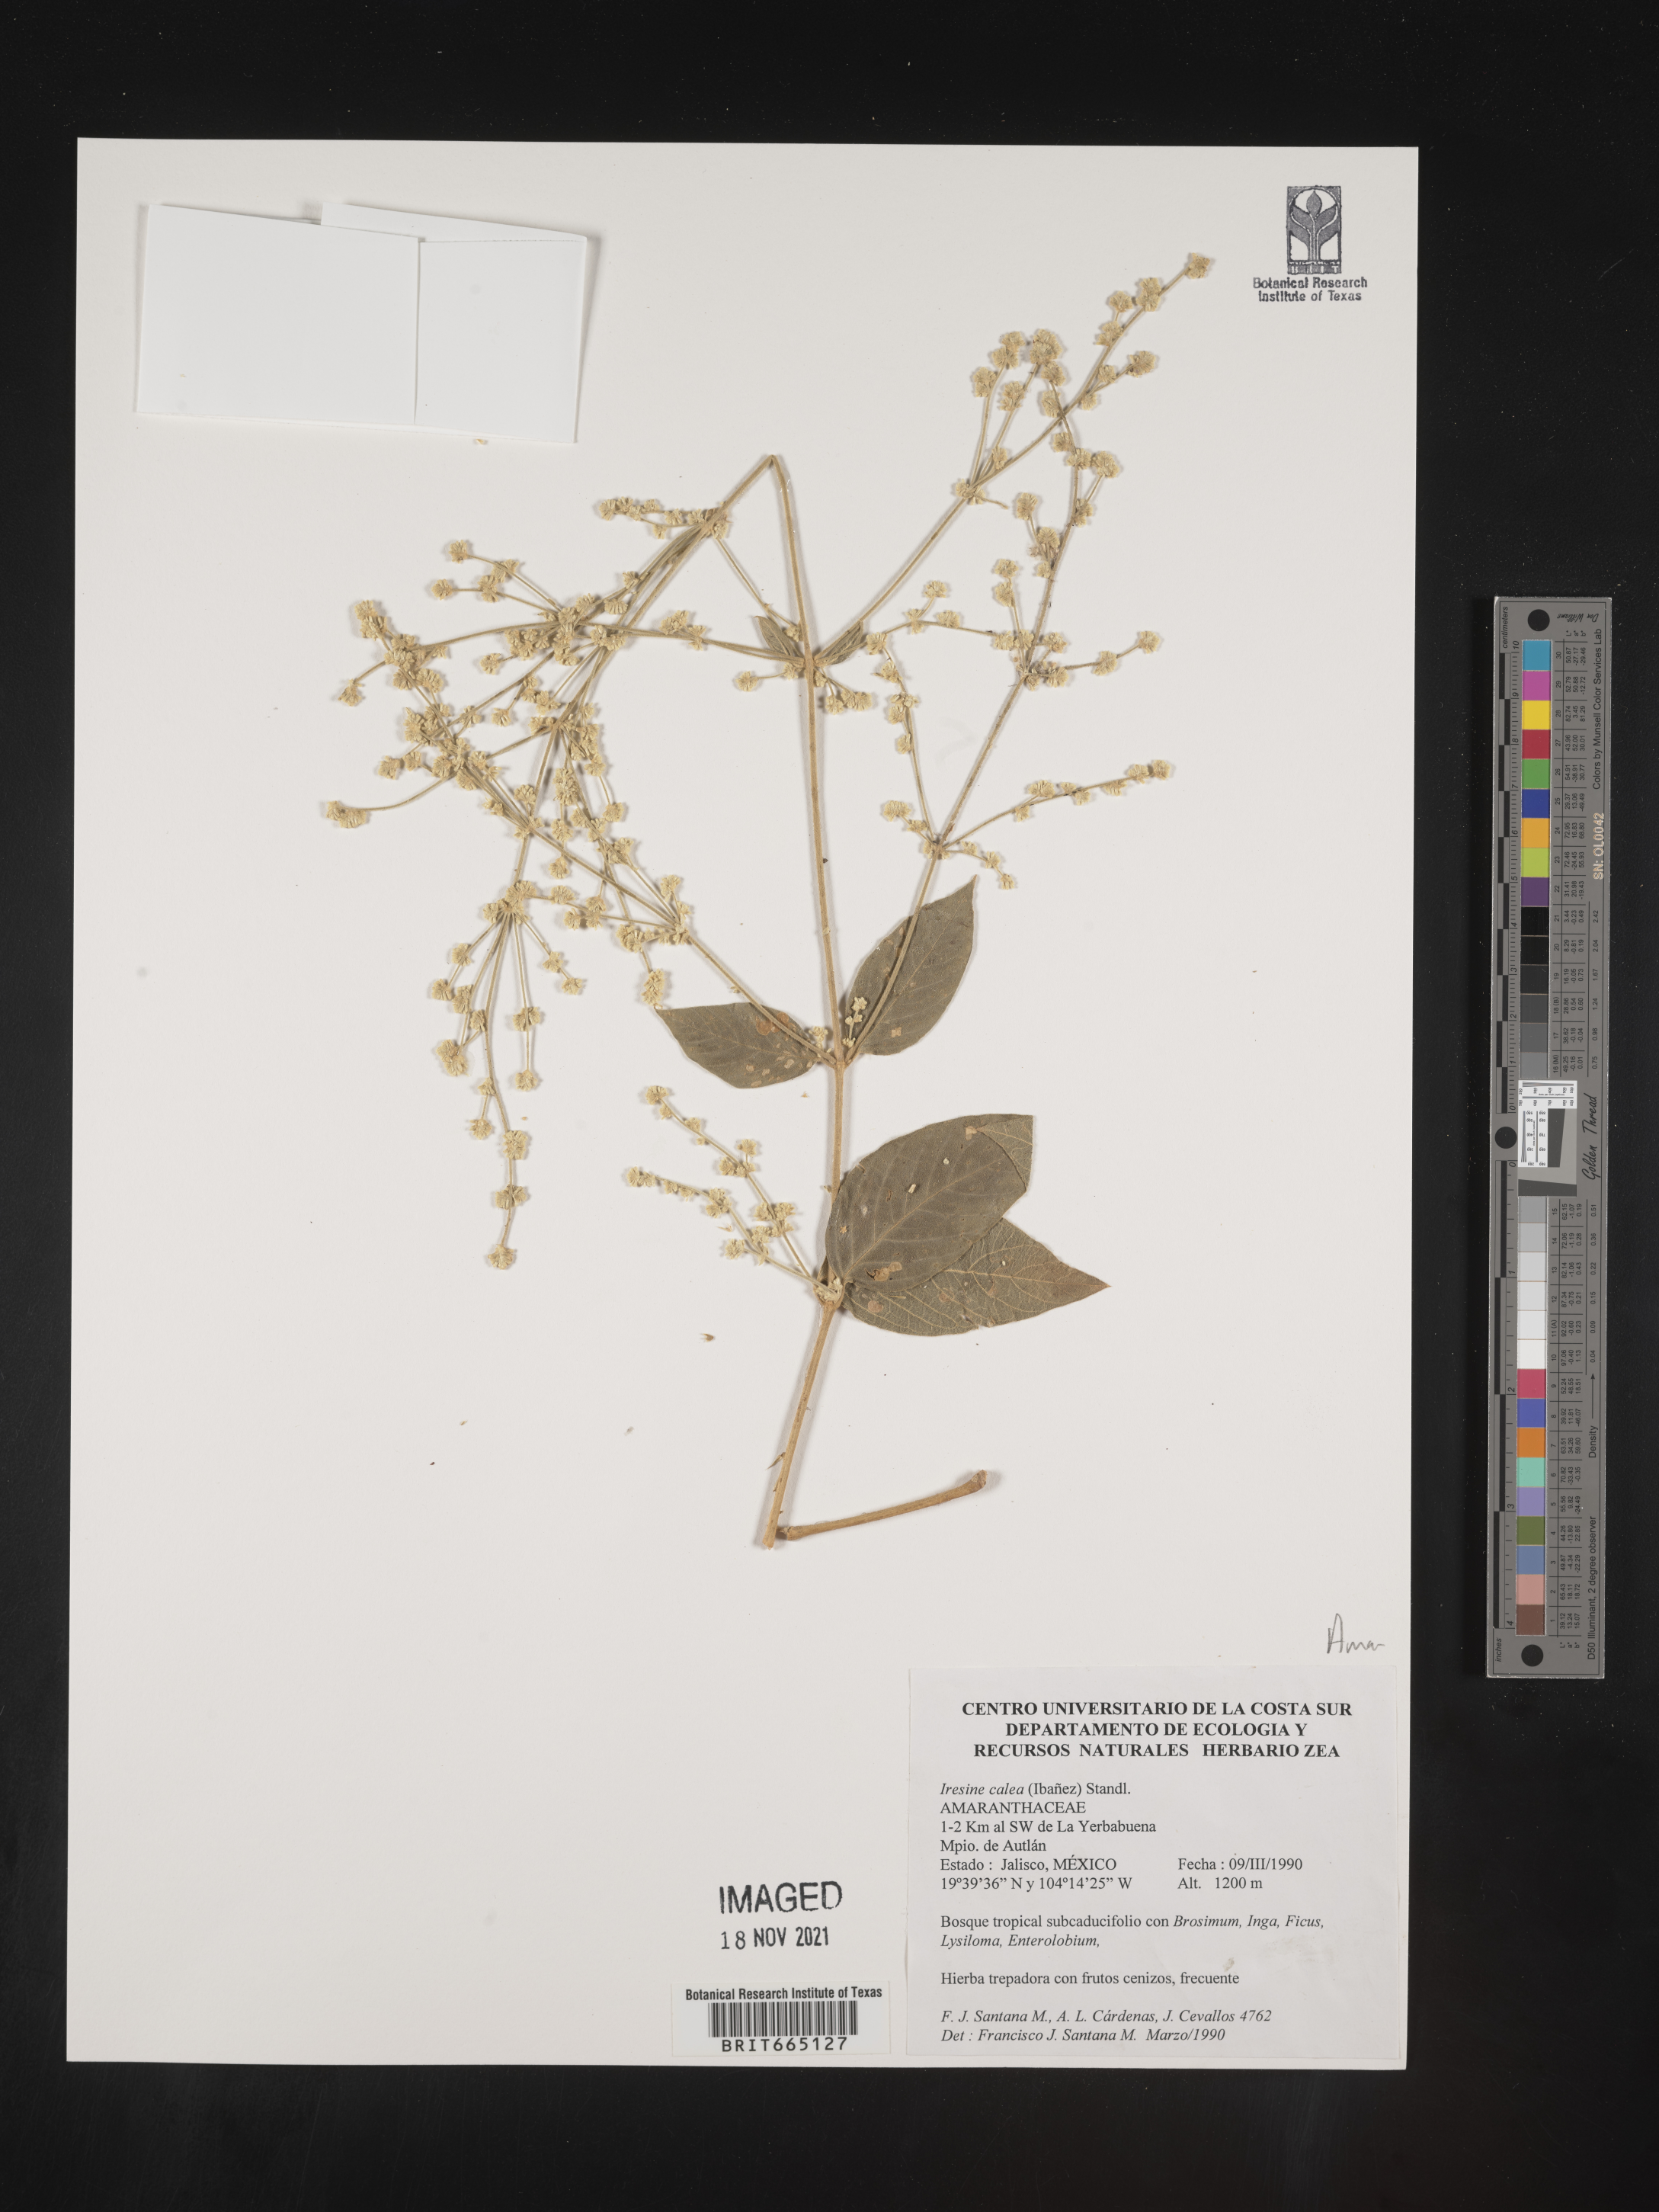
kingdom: Plantae
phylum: Tracheophyta
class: Magnoliopsida
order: Caryophyllales
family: Amaranthaceae
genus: Iresine
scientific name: Iresine
